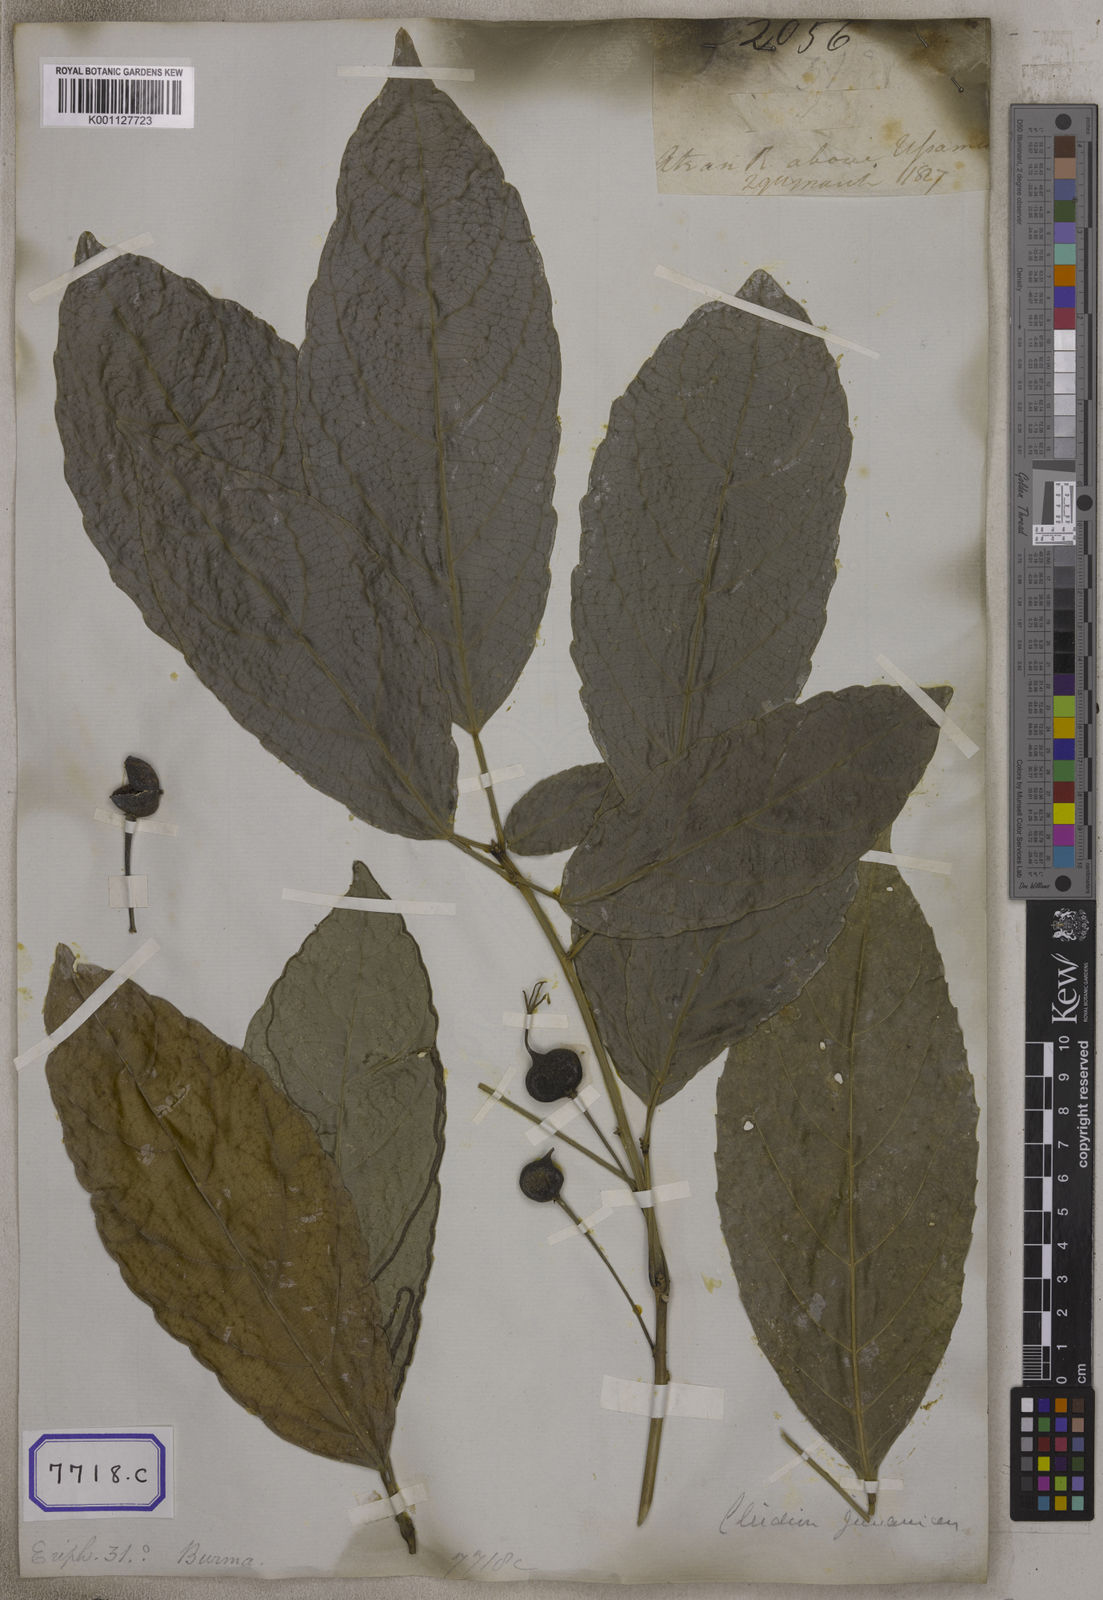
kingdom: Plantae
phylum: Tracheophyta
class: Magnoliopsida
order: Malpighiales
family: Euphorbiaceae
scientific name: Euphorbiaceae
